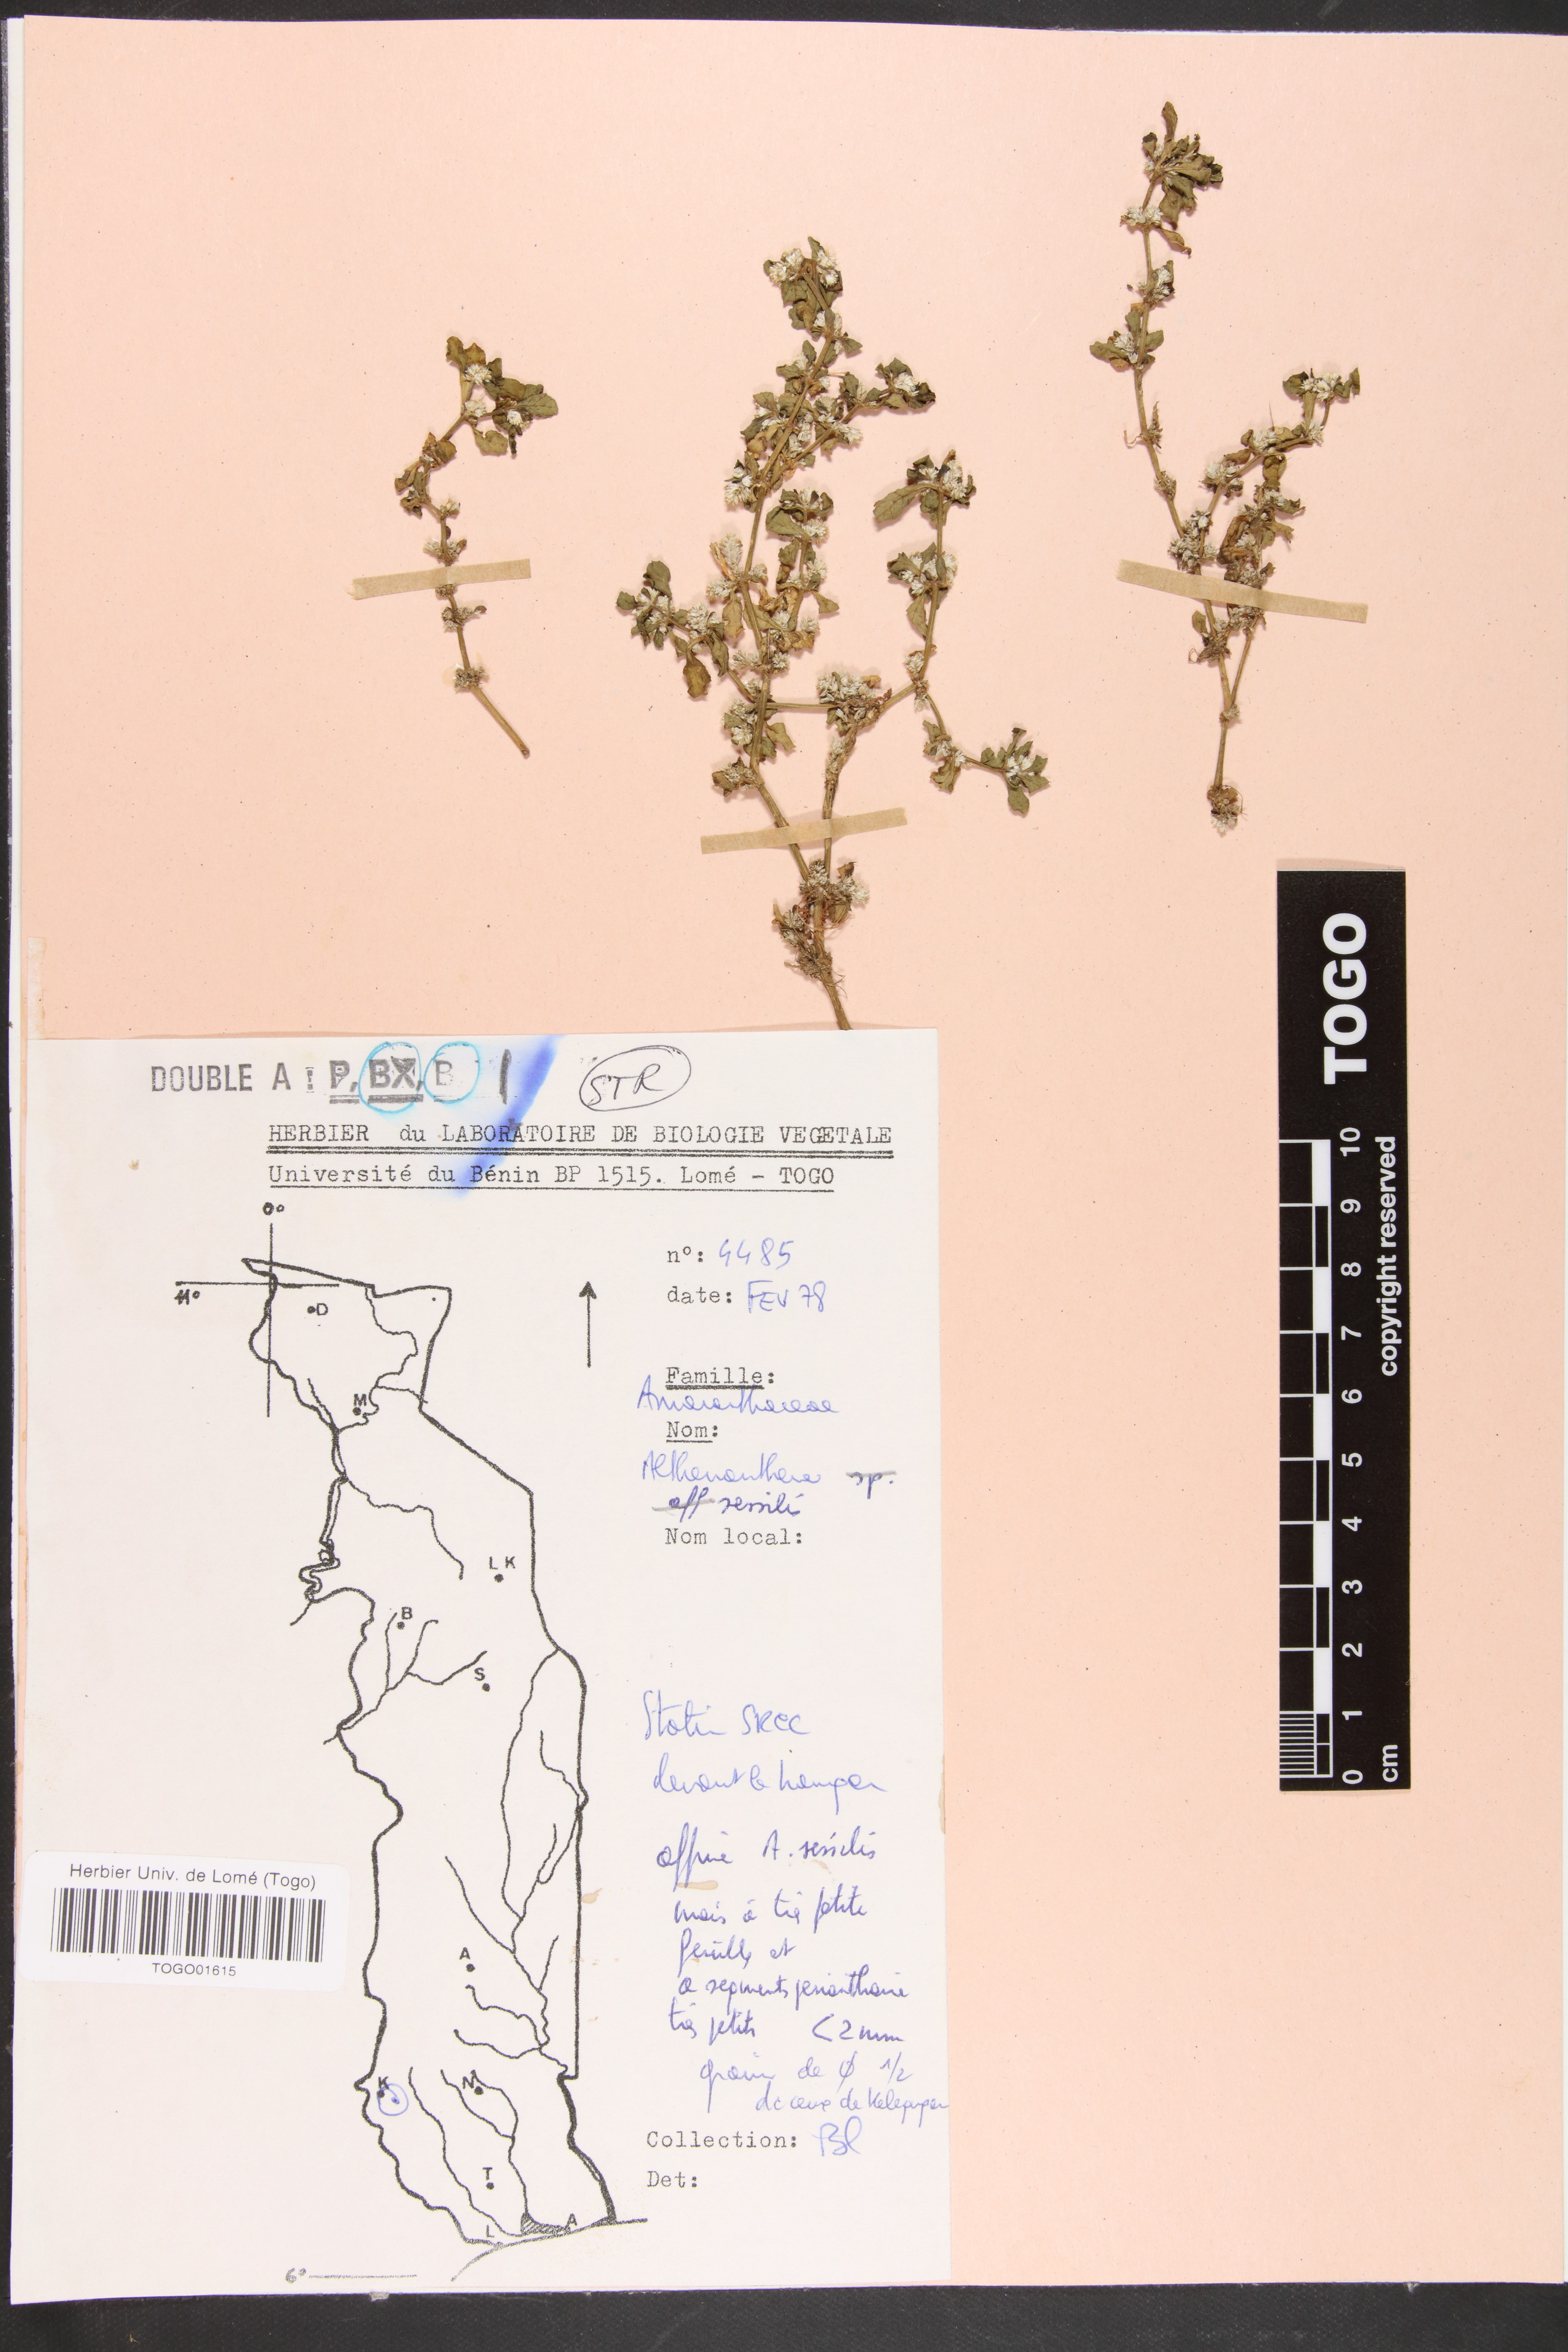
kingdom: Plantae
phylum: Tracheophyta
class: Magnoliopsida
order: Caryophyllales
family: Amaranthaceae
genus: Alternanthera
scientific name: Alternanthera sessilis
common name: Sessile joyweed
